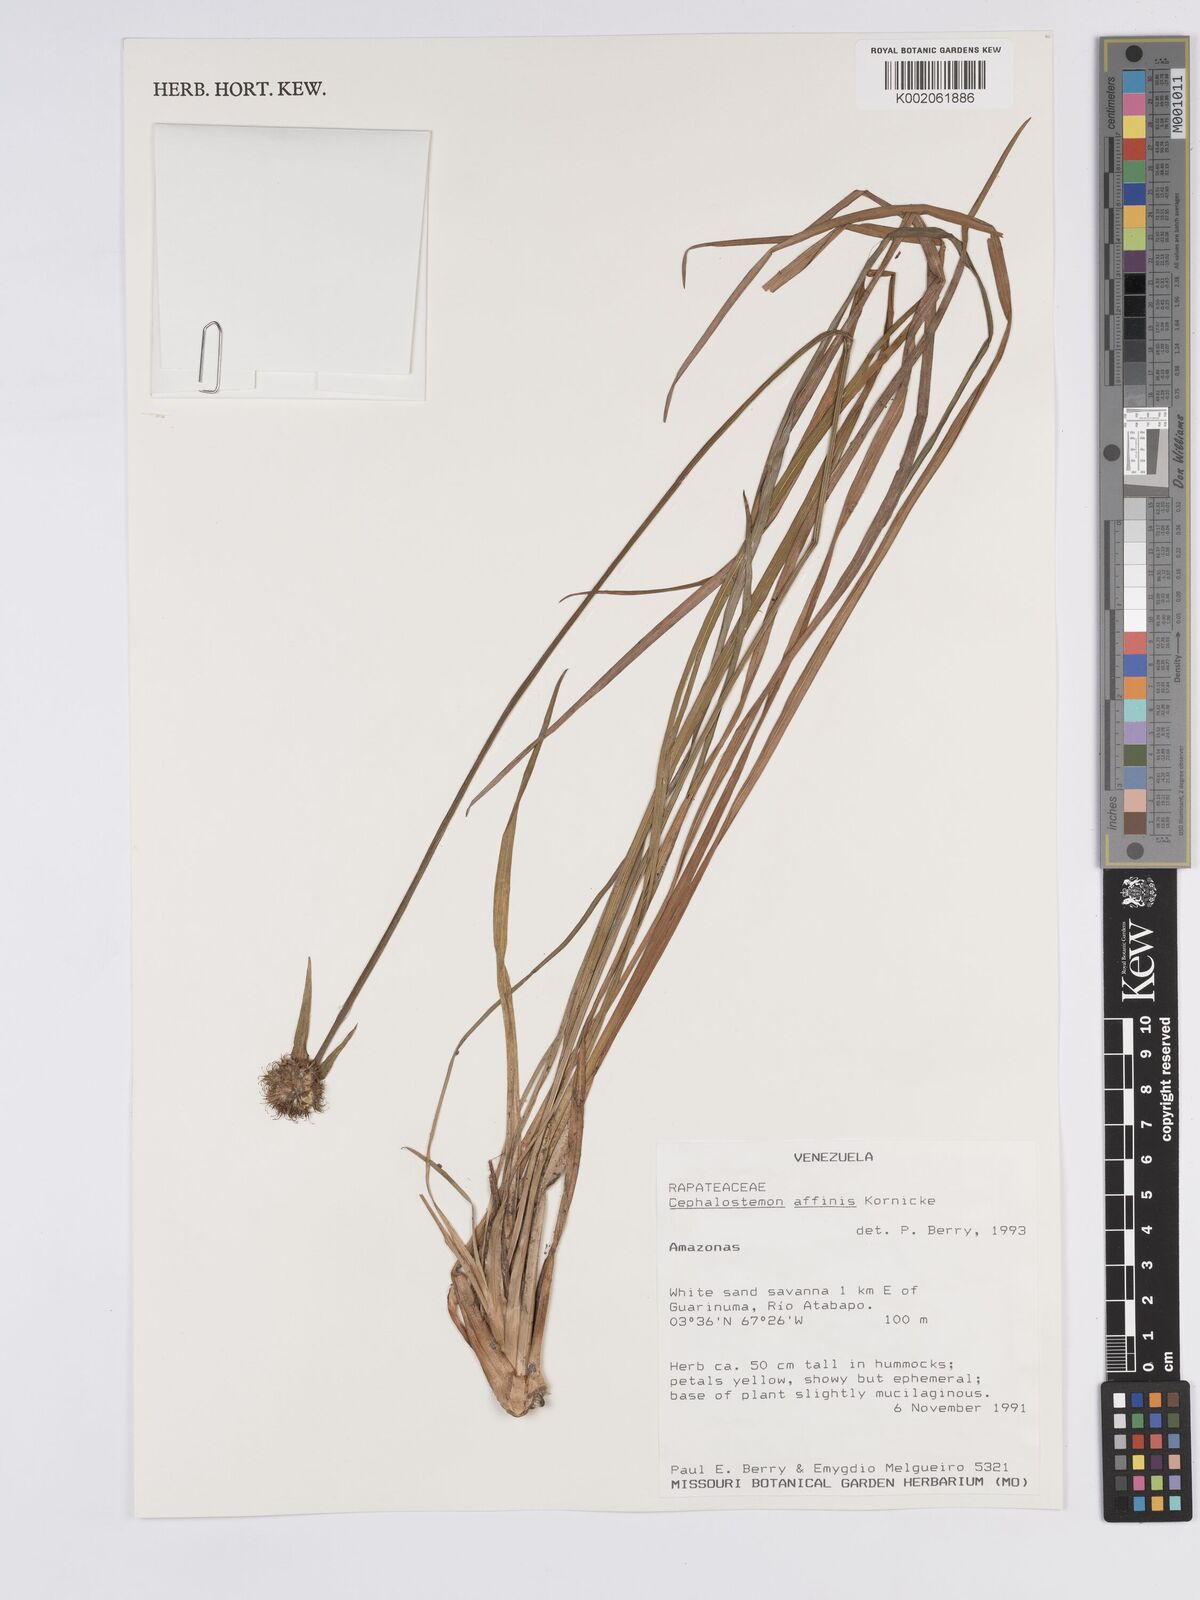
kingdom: Plantae
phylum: Tracheophyta
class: Liliopsida
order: Poales
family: Rapateaceae
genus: Cephalostemon
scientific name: Cephalostemon affinis
